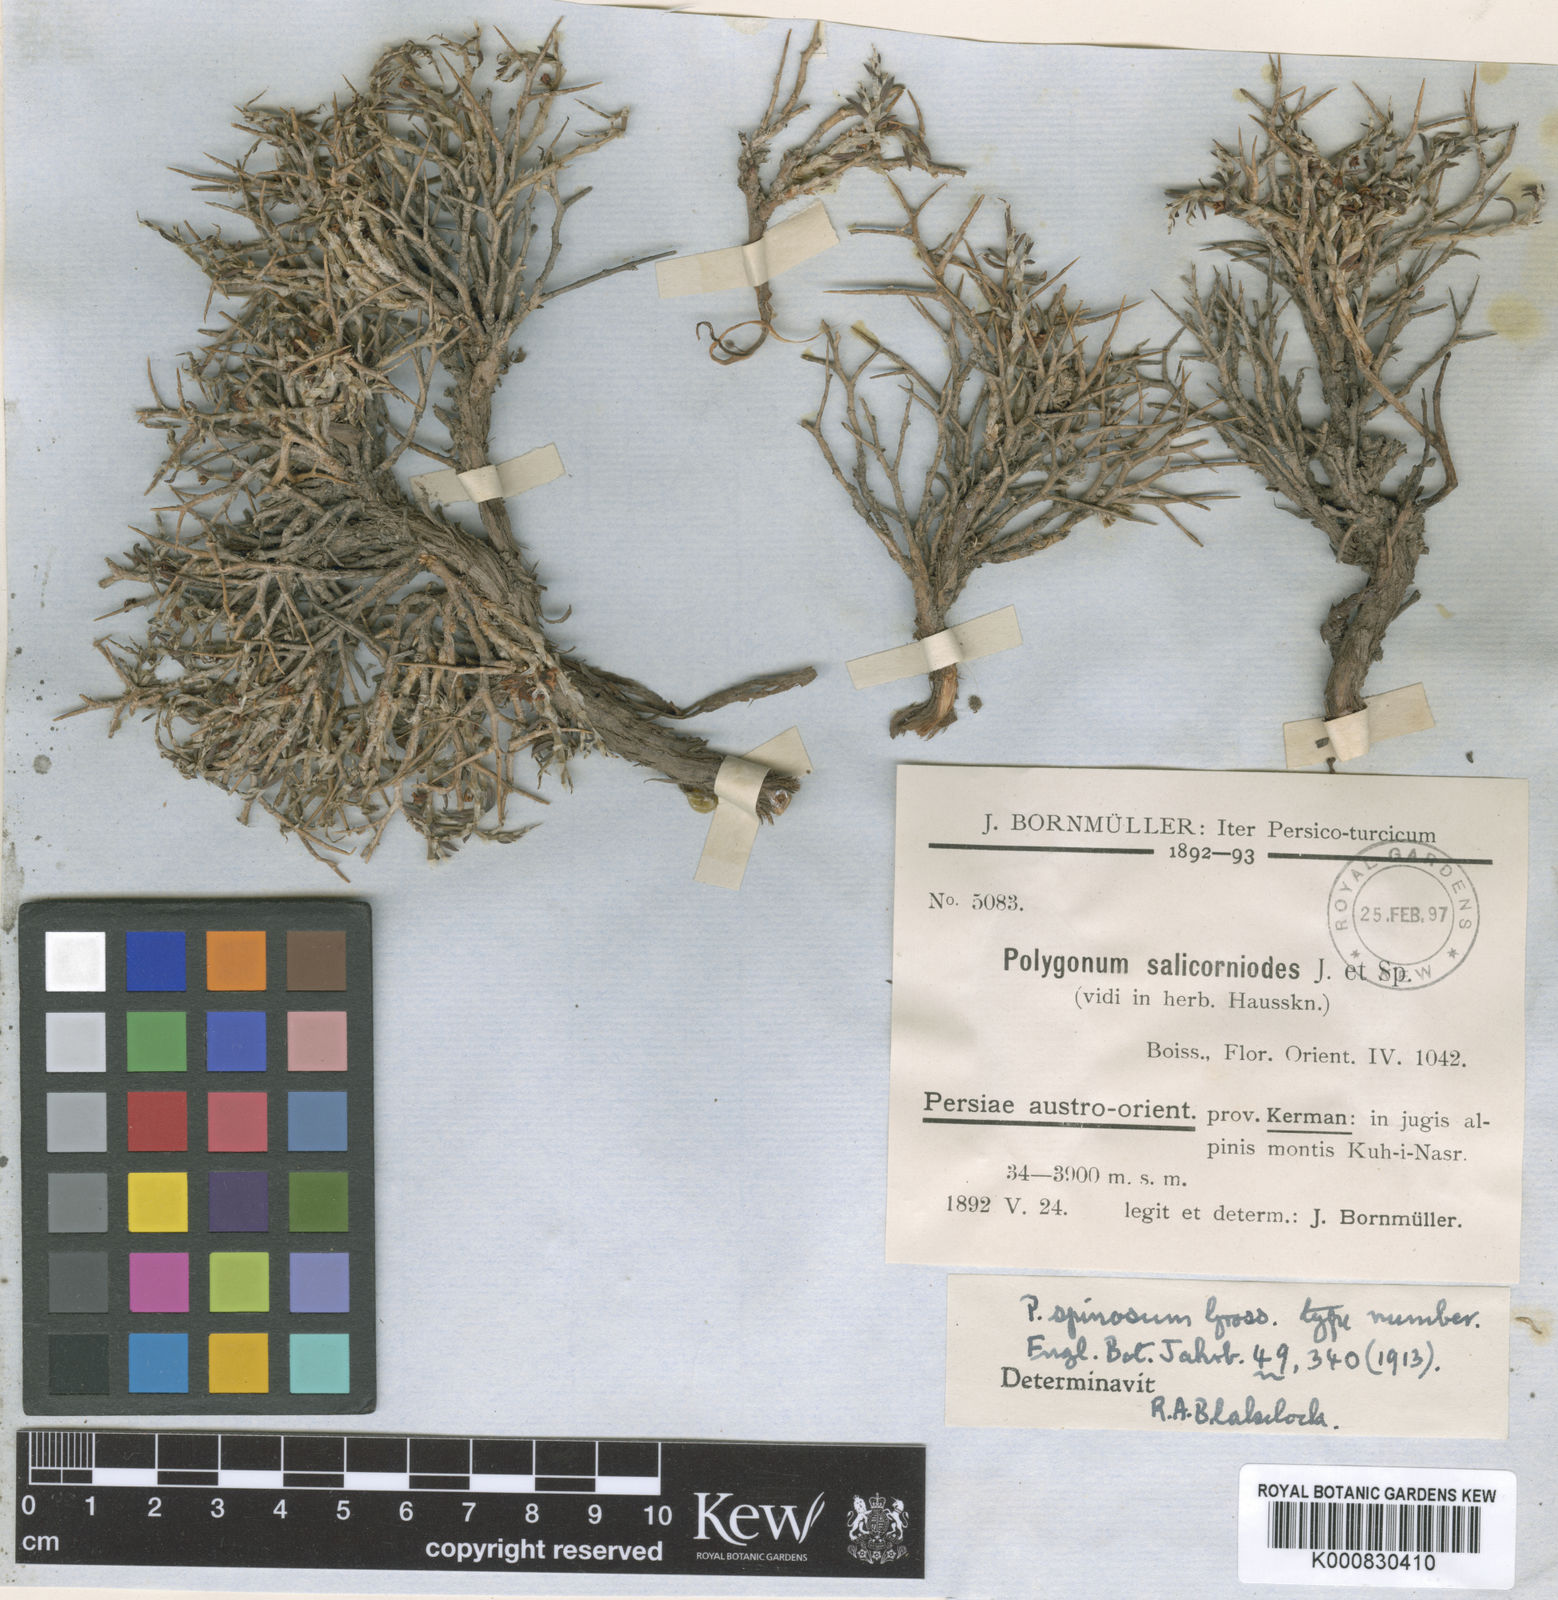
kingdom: Plantae
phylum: Tracheophyta
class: Magnoliopsida
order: Caryophyllales
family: Polygonaceae
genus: Atraphaxis
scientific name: Atraphaxis kermanica
